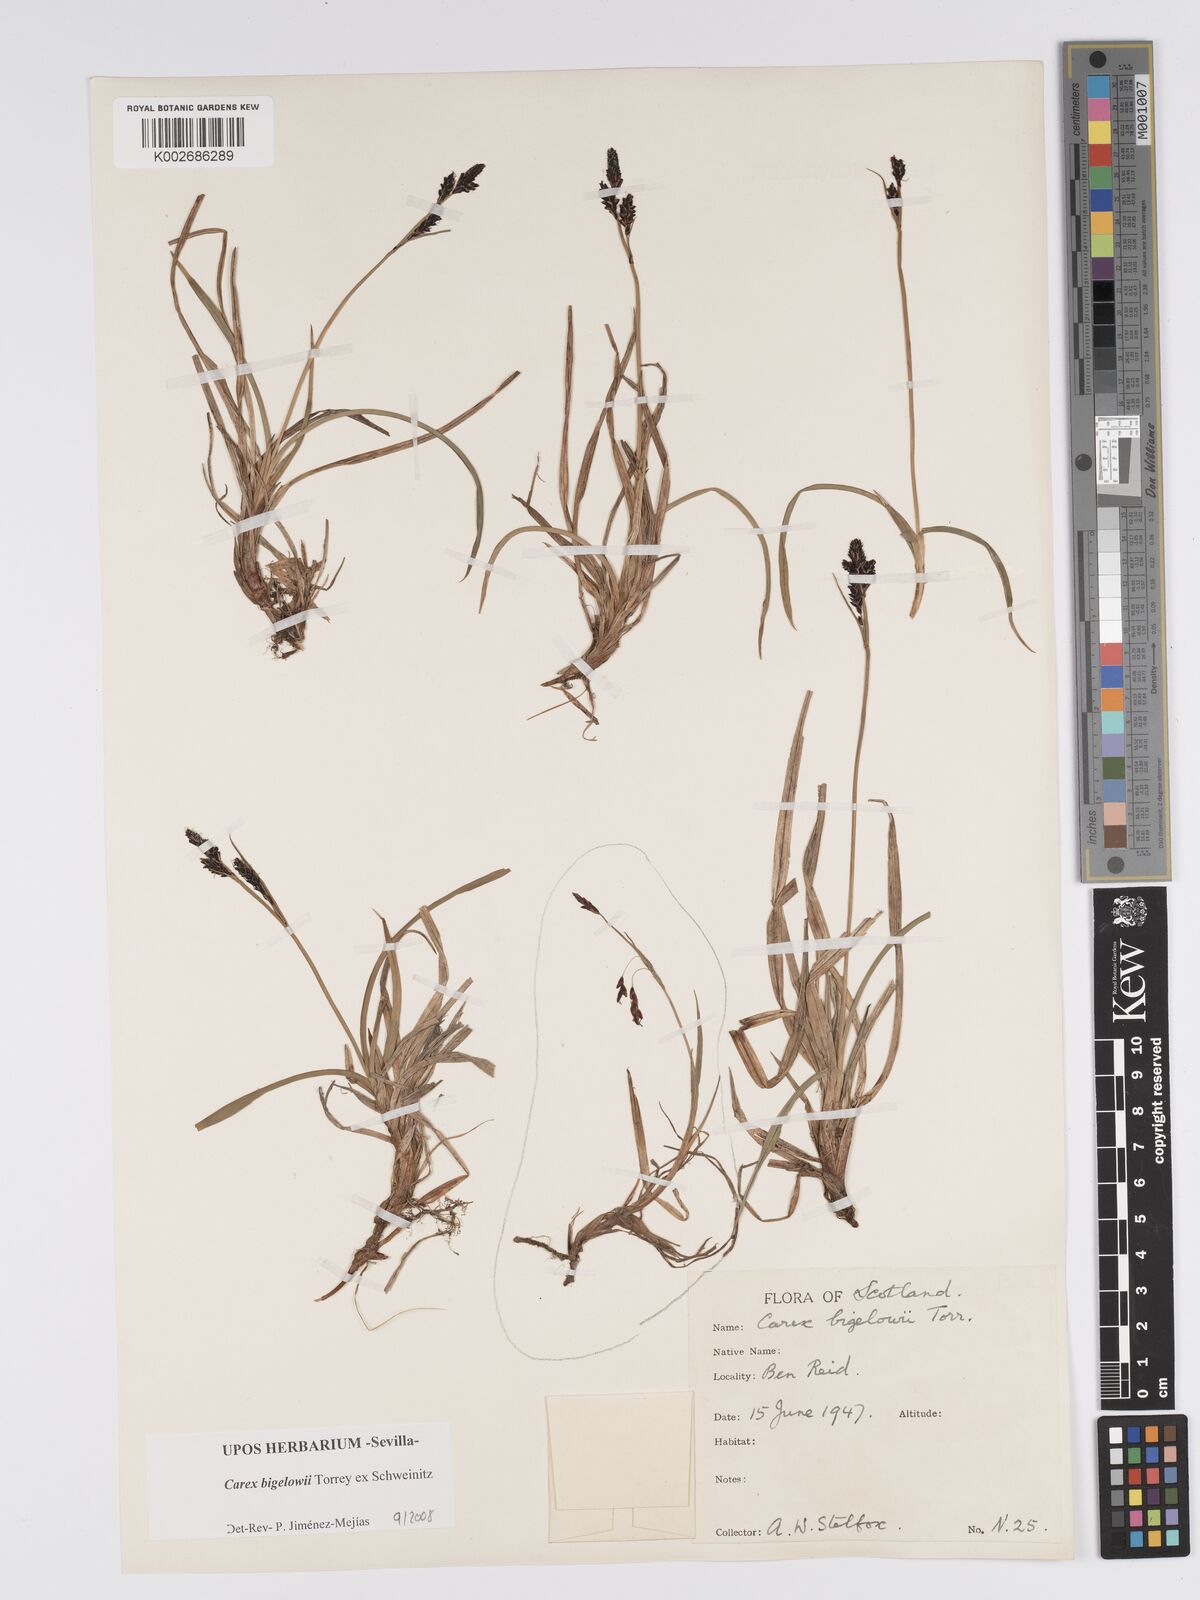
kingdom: Plantae
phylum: Tracheophyta
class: Liliopsida
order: Poales
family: Cyperaceae
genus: Carex
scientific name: Carex bigelowii
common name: Stiff sedge
